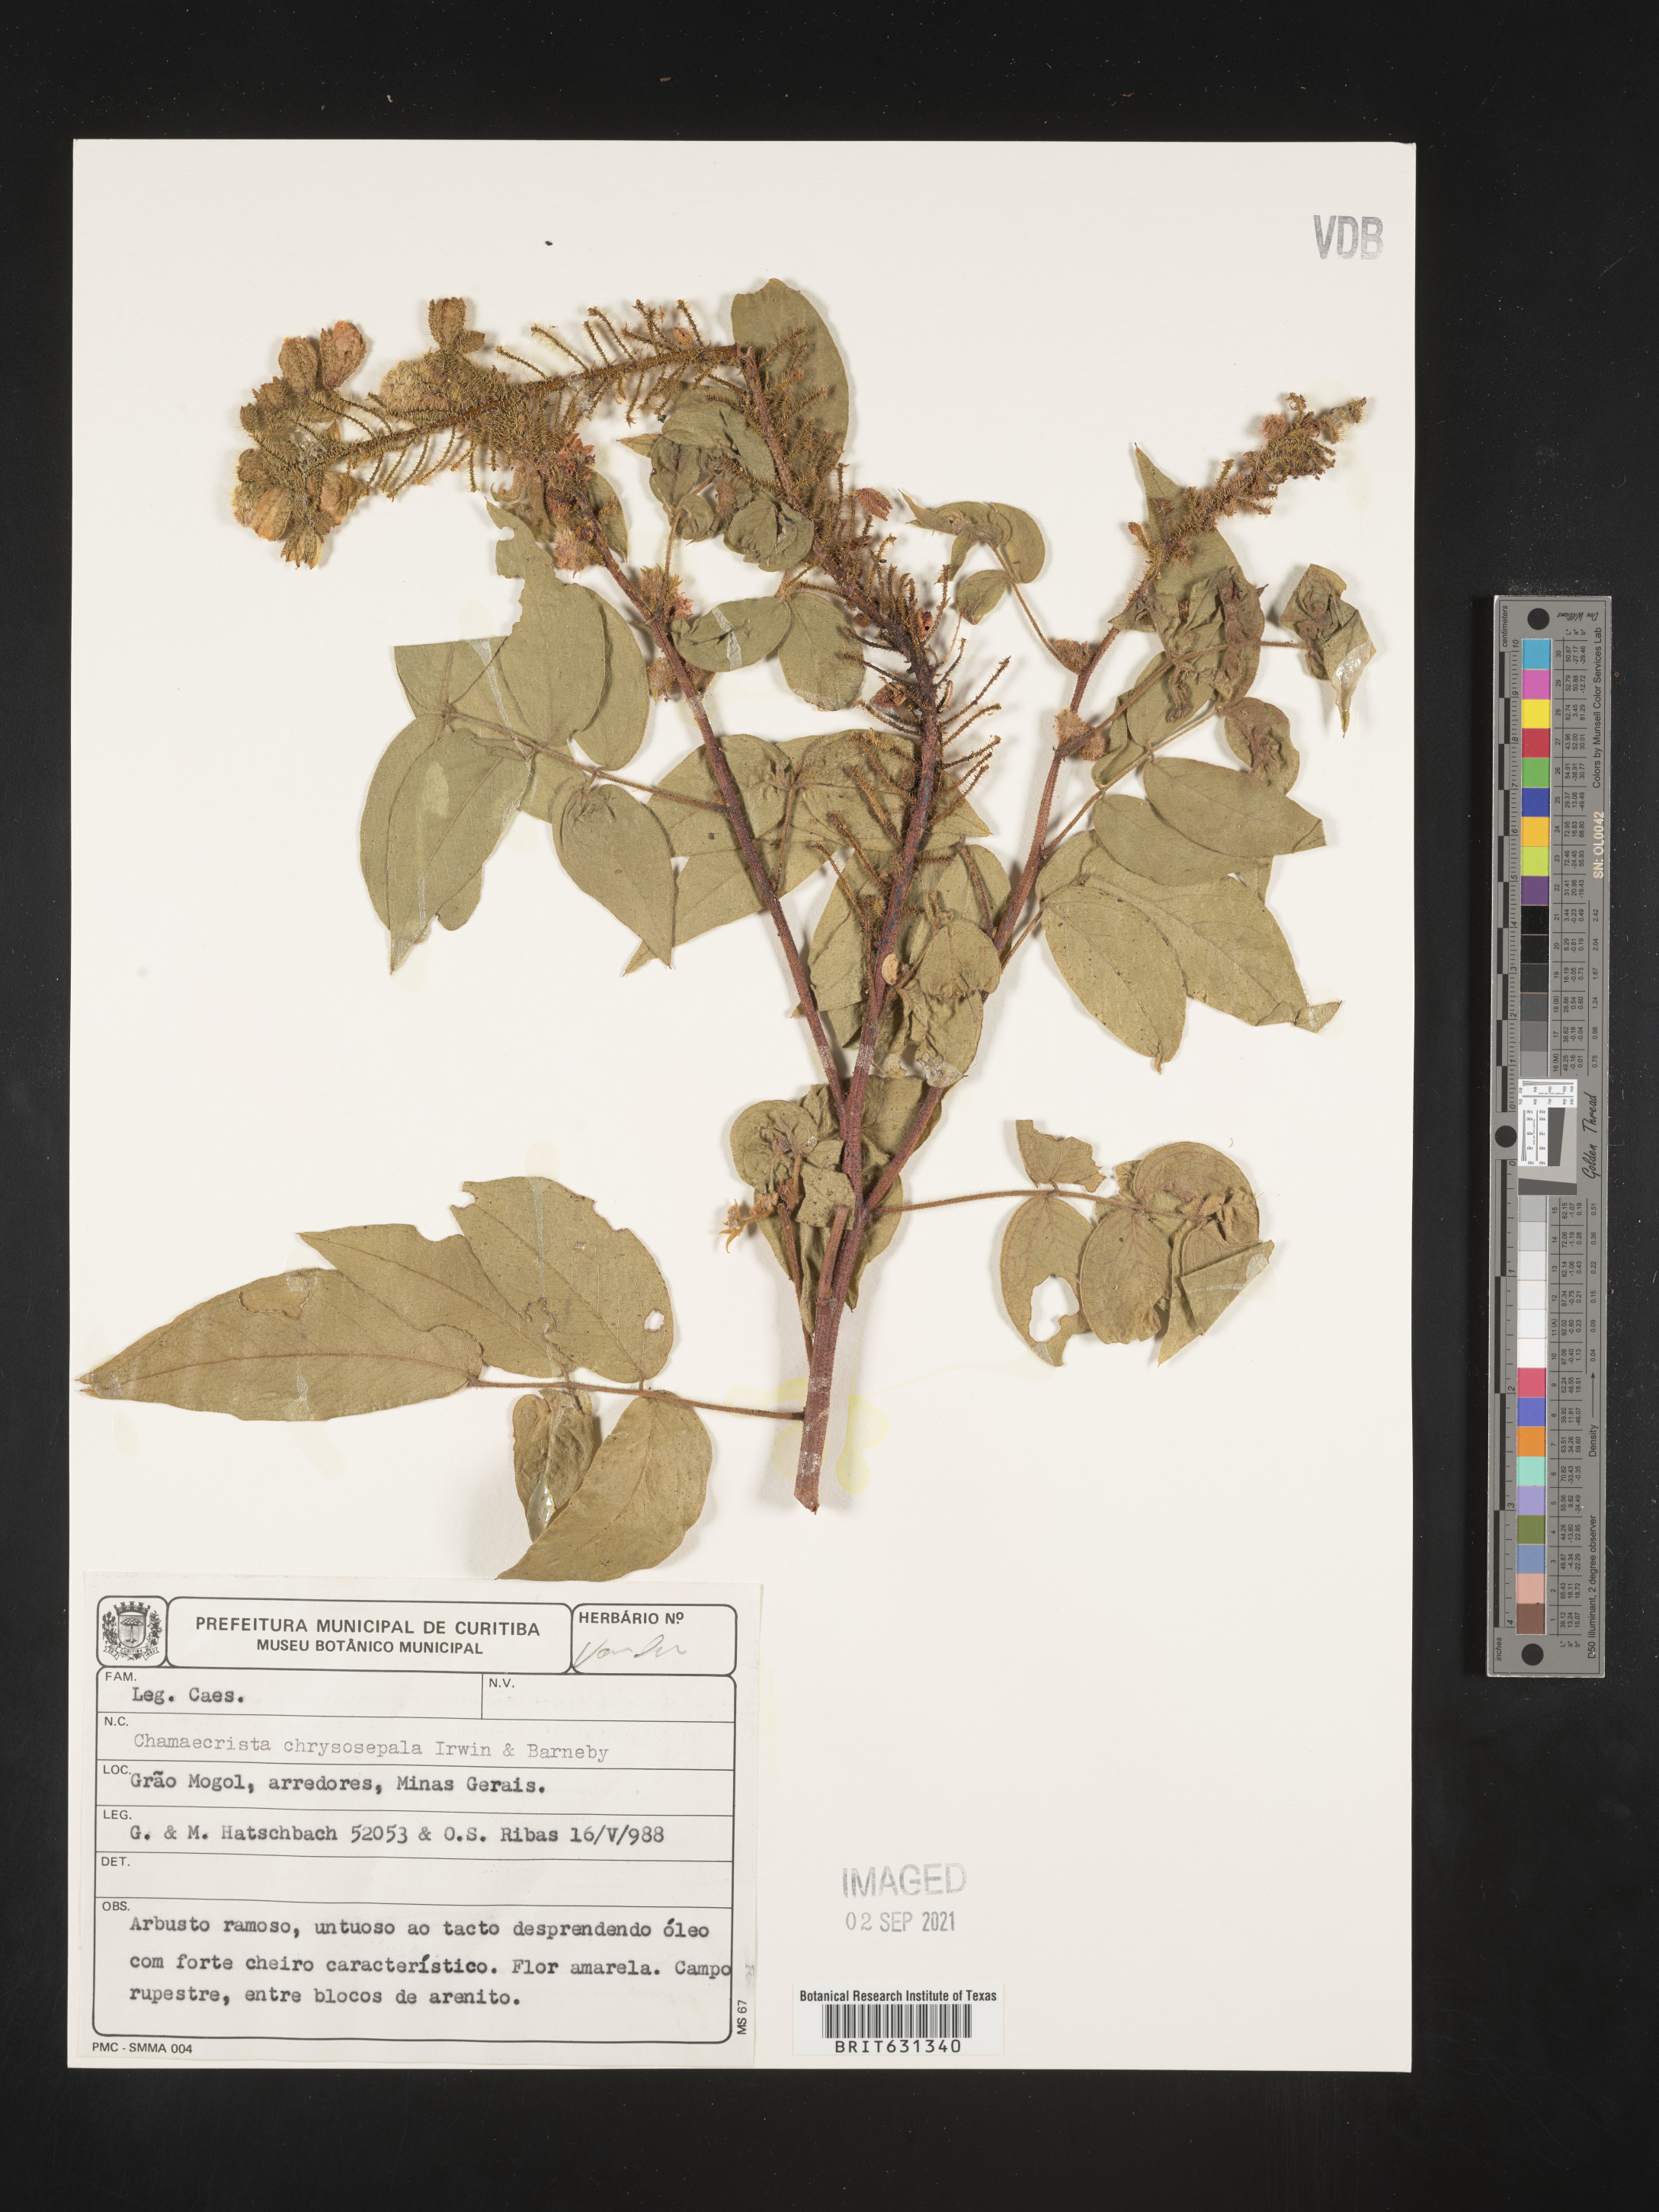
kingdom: Plantae
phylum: Tracheophyta
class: Magnoliopsida
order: Fabales
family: Fabaceae
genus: Chamaecrista
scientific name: Chamaecrista chrysosepala
